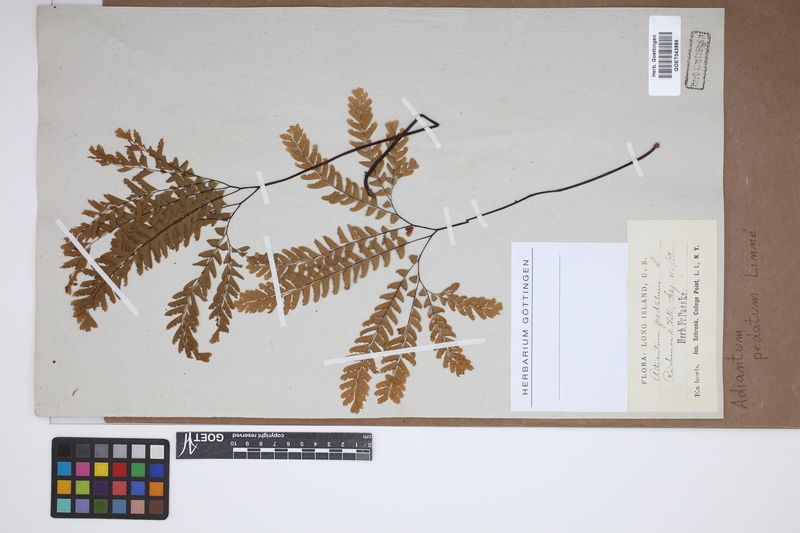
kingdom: Plantae
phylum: Tracheophyta
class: Polypodiopsida
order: Polypodiales
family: Pteridaceae
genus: Adiantum
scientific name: Adiantum pedatum
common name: Five-finger fern
